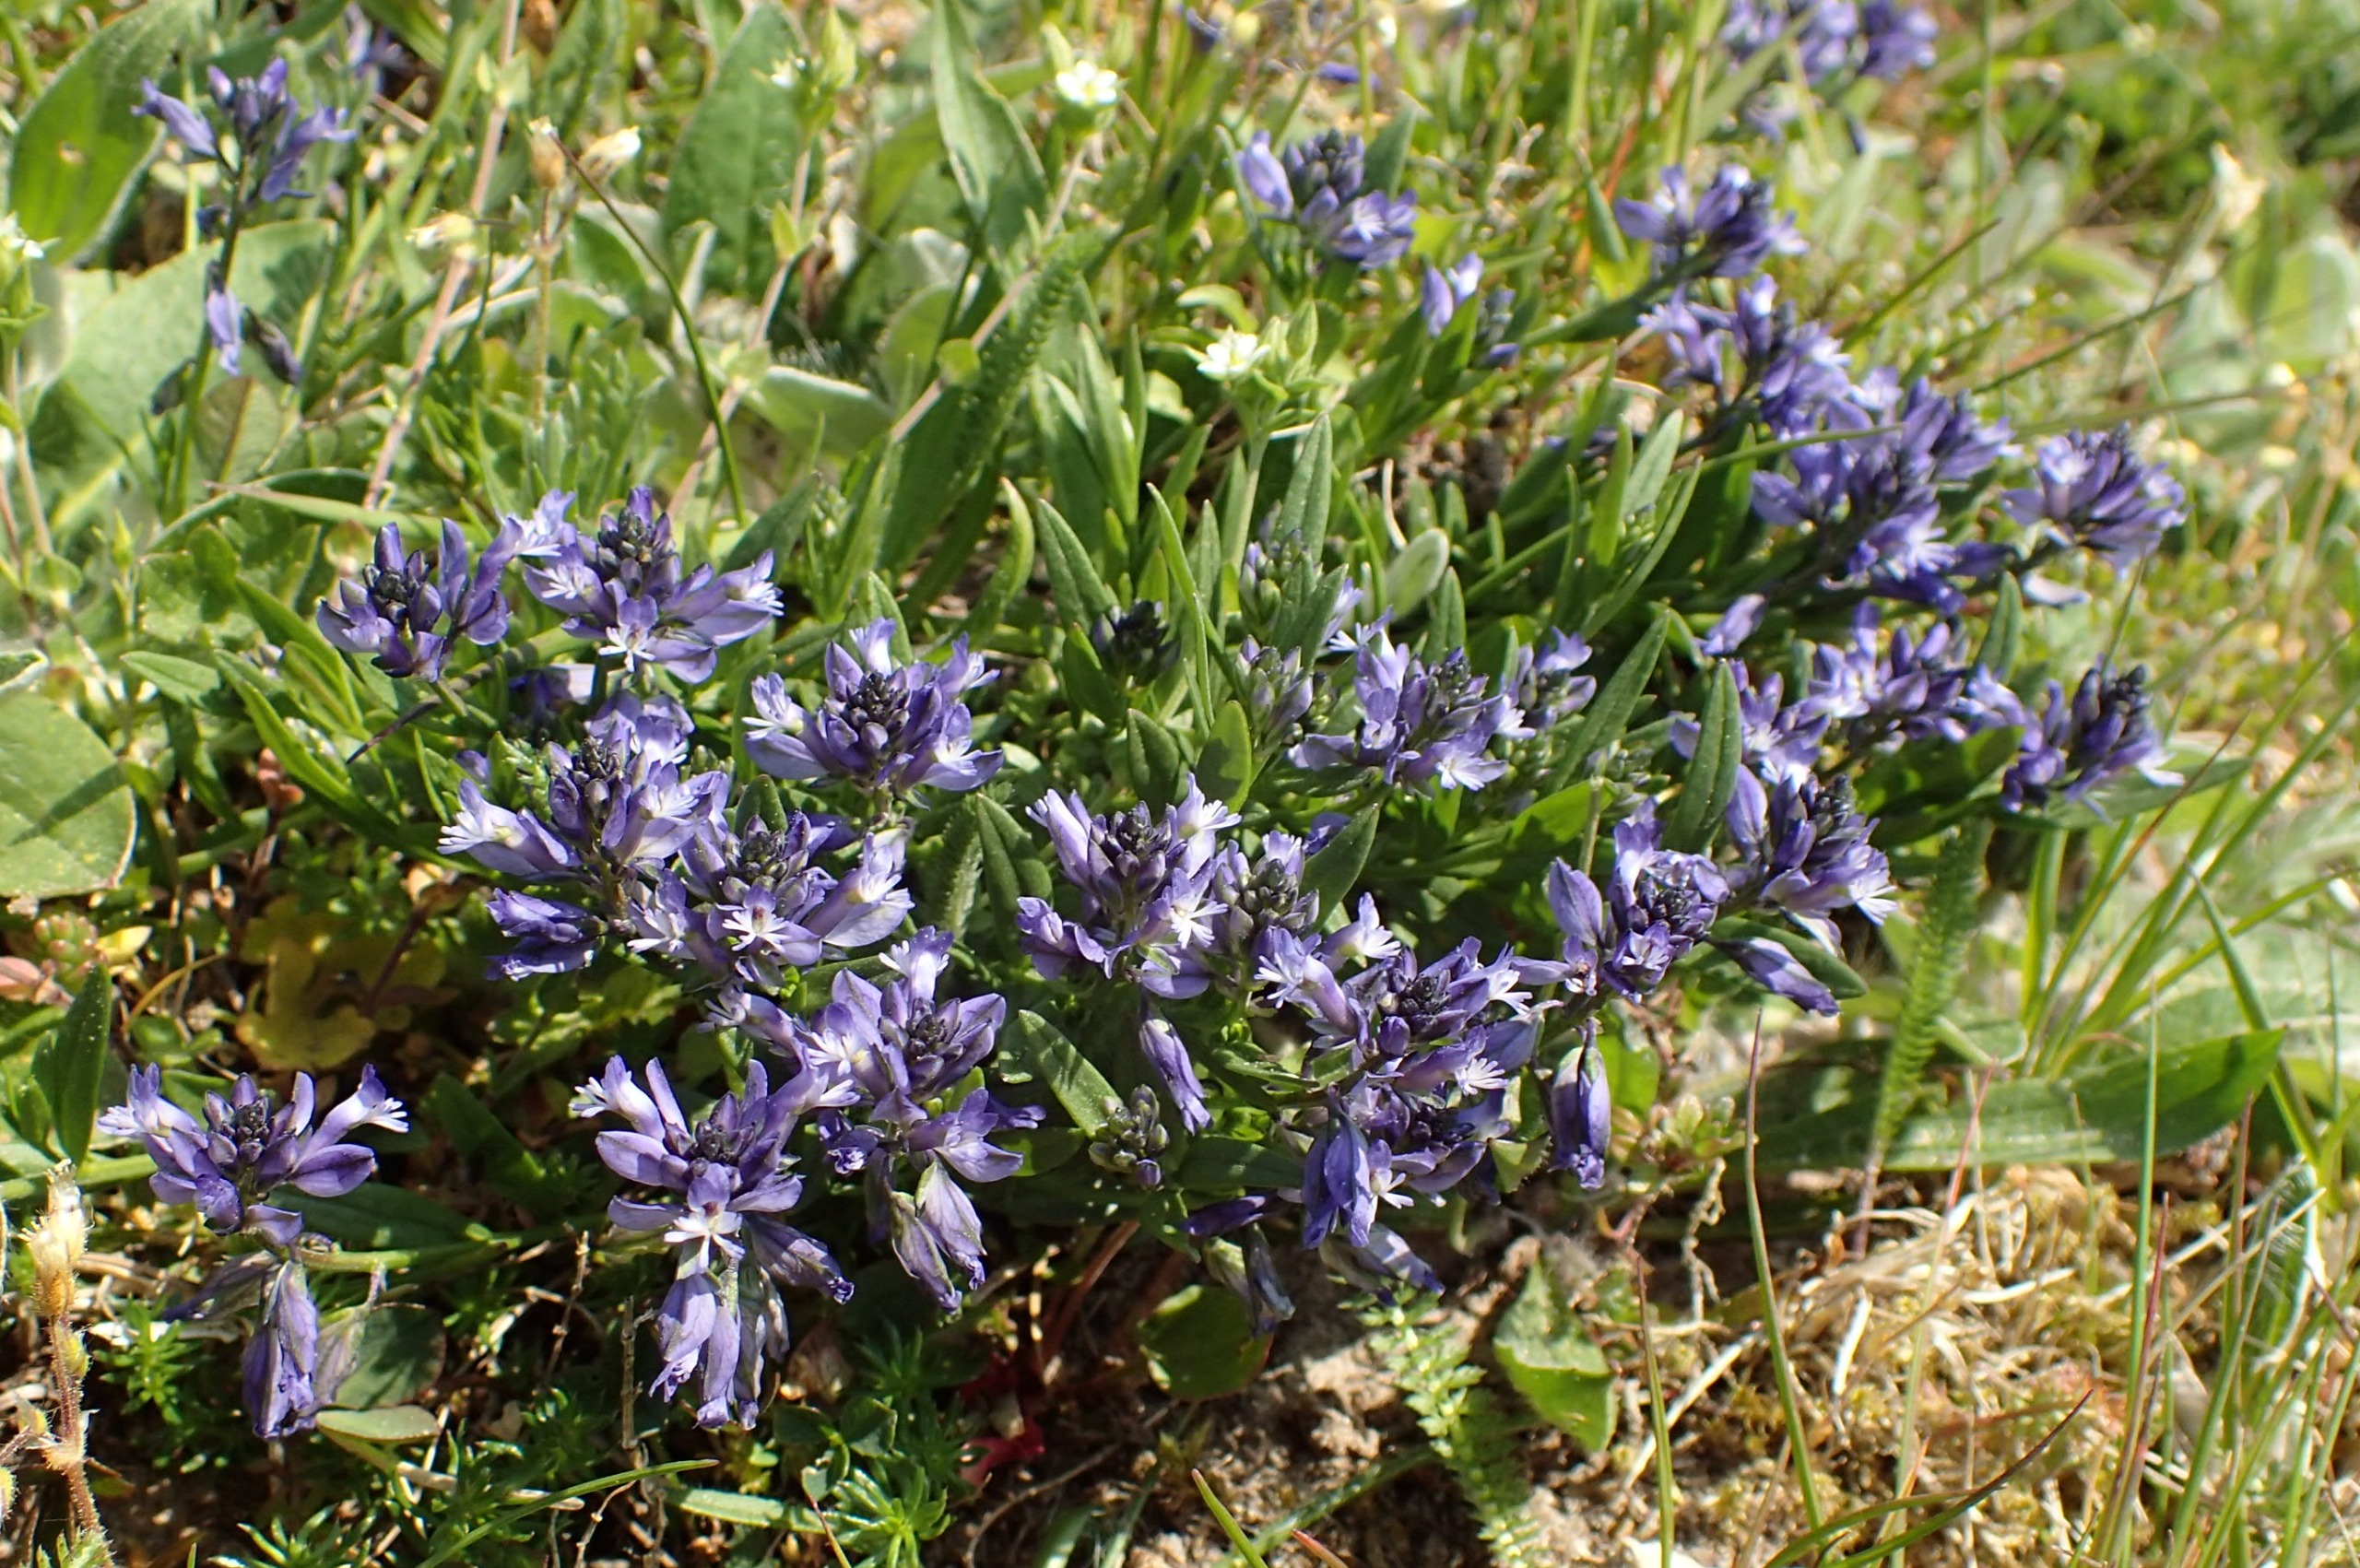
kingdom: Plantae
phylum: Tracheophyta
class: Magnoliopsida
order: Fabales
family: Polygalaceae
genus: Polygala
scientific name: Polygala vulgaris
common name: Almindelig mælkeurt
